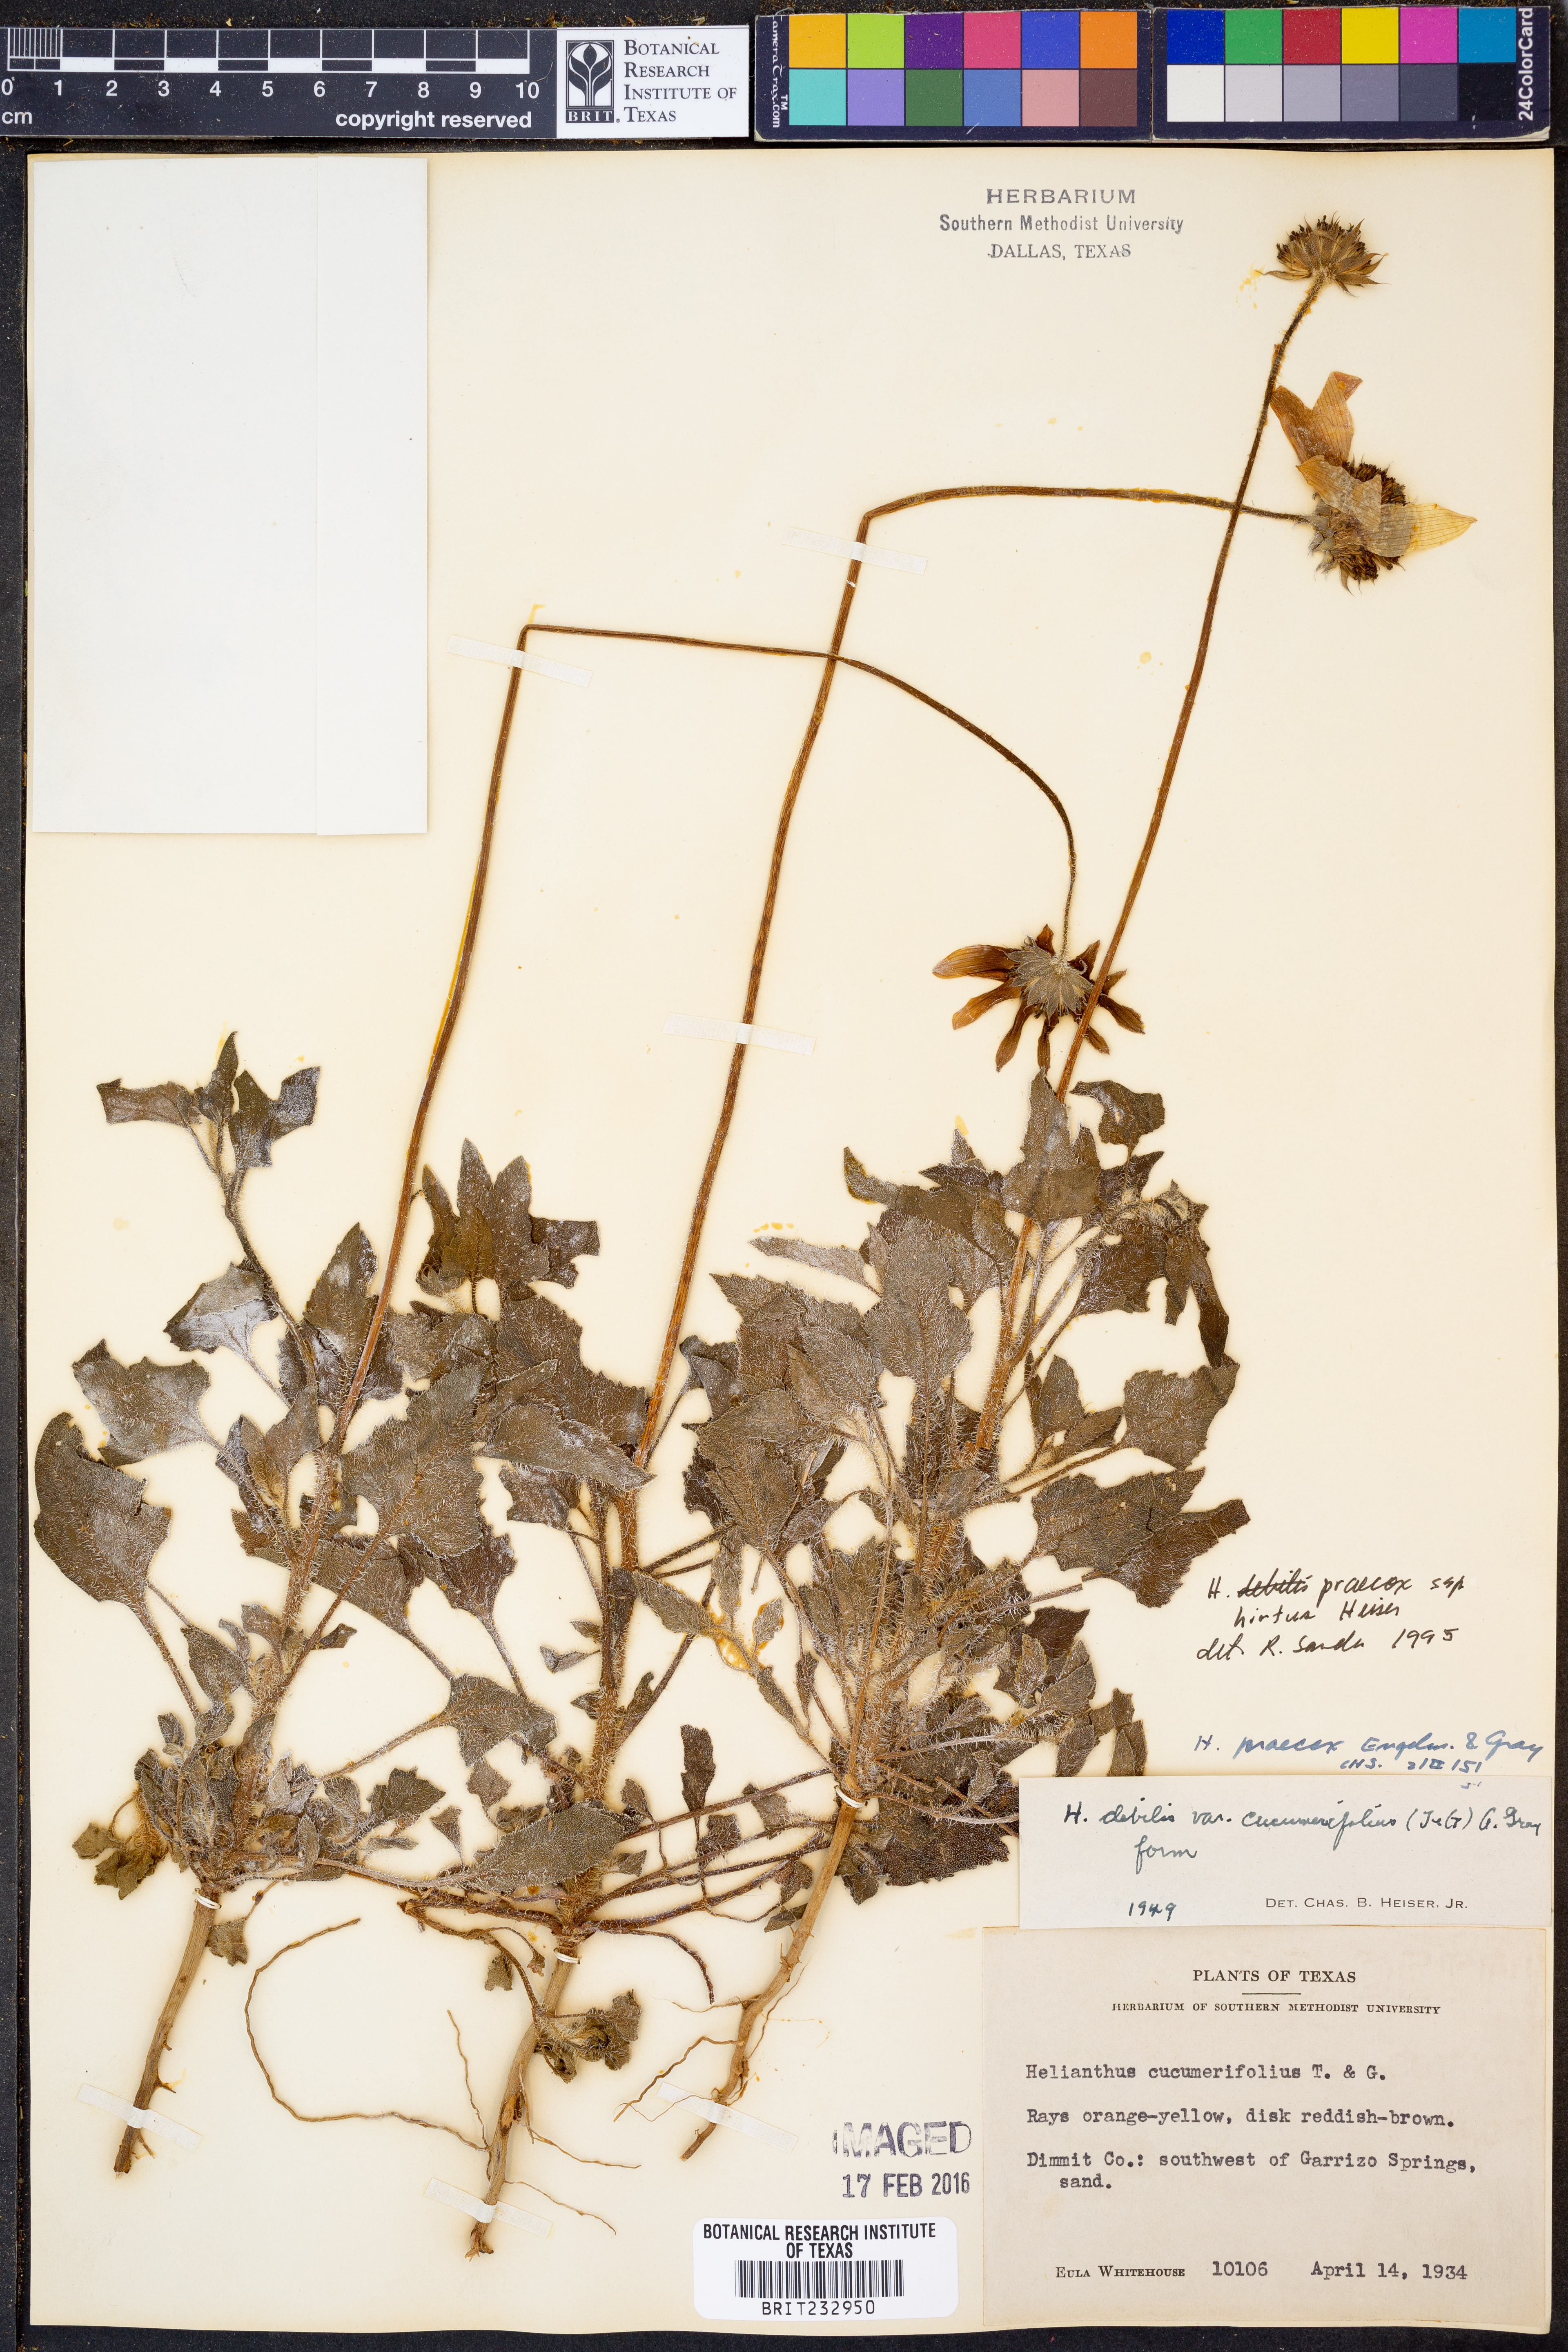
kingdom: Plantae
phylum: Tracheophyta
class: Magnoliopsida
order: Asterales
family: Asteraceae
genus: Helianthus
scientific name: Helianthus praecox
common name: Texas sunflower
